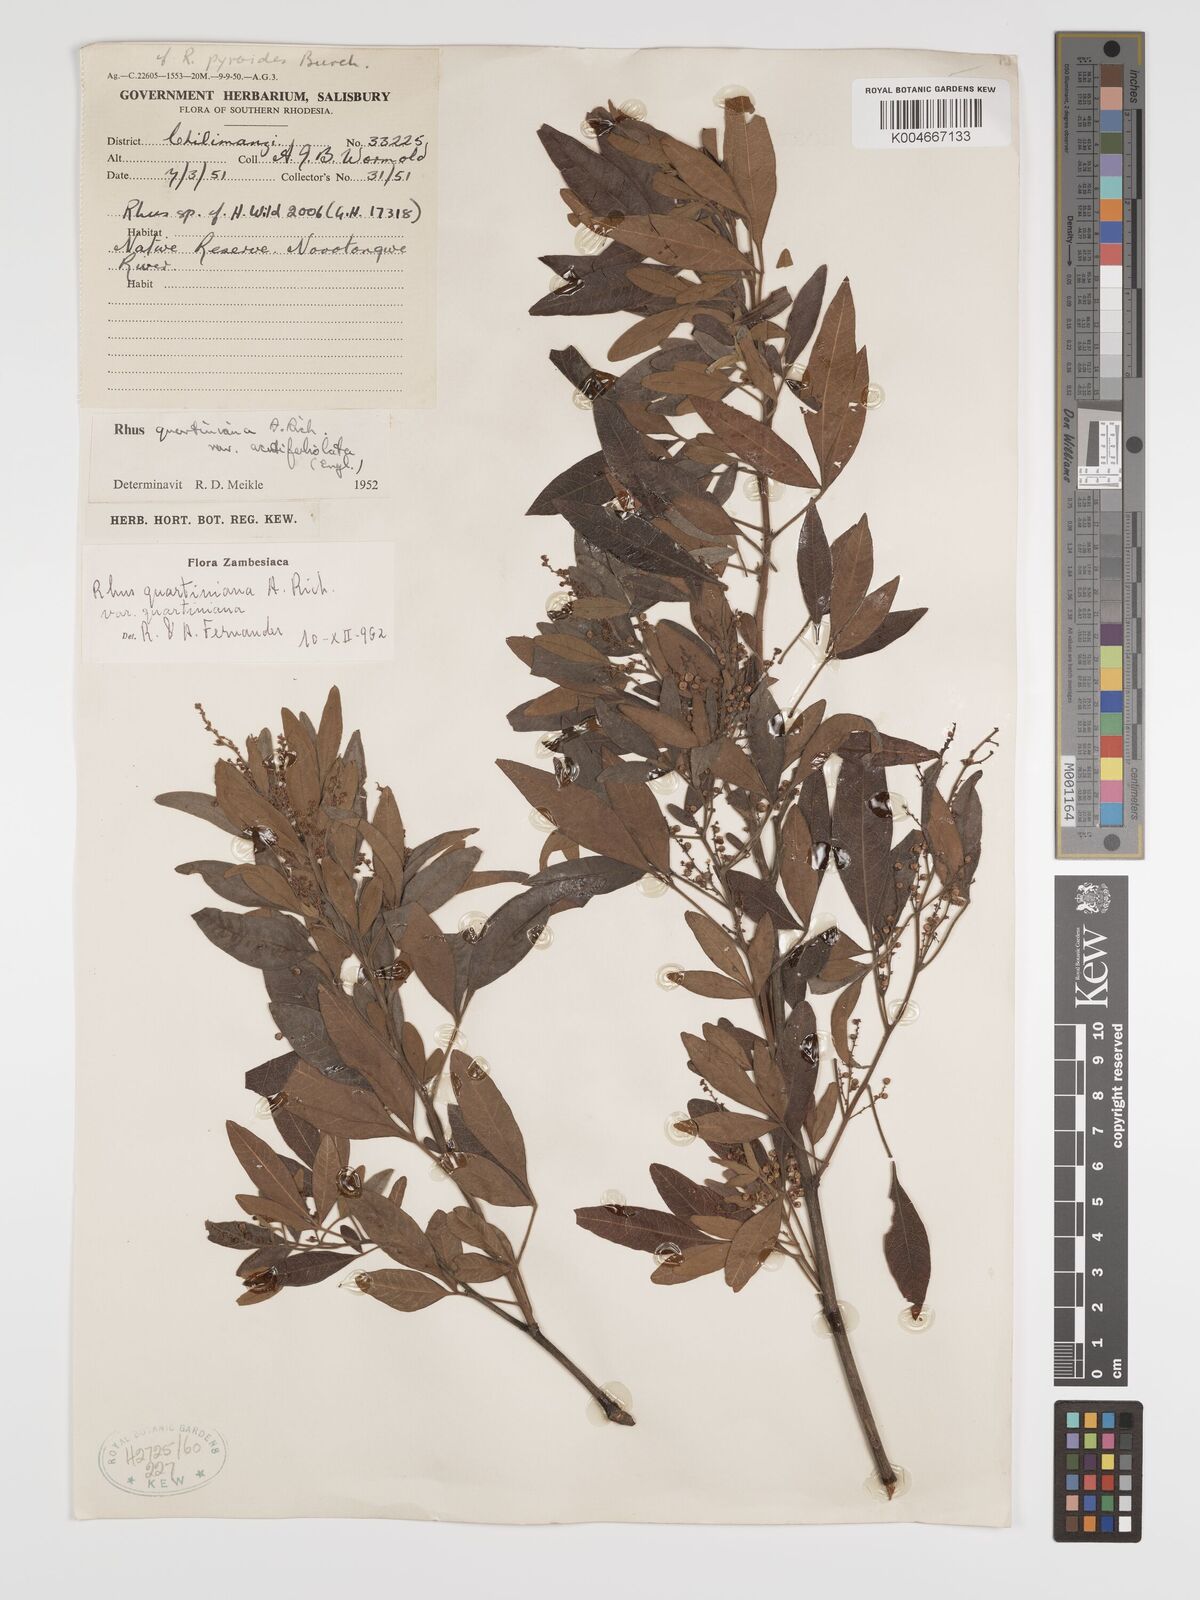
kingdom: Plantae
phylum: Tracheophyta
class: Magnoliopsida
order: Sapindales
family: Anacardiaceae
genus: Searsia
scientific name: Searsia quartiniana
